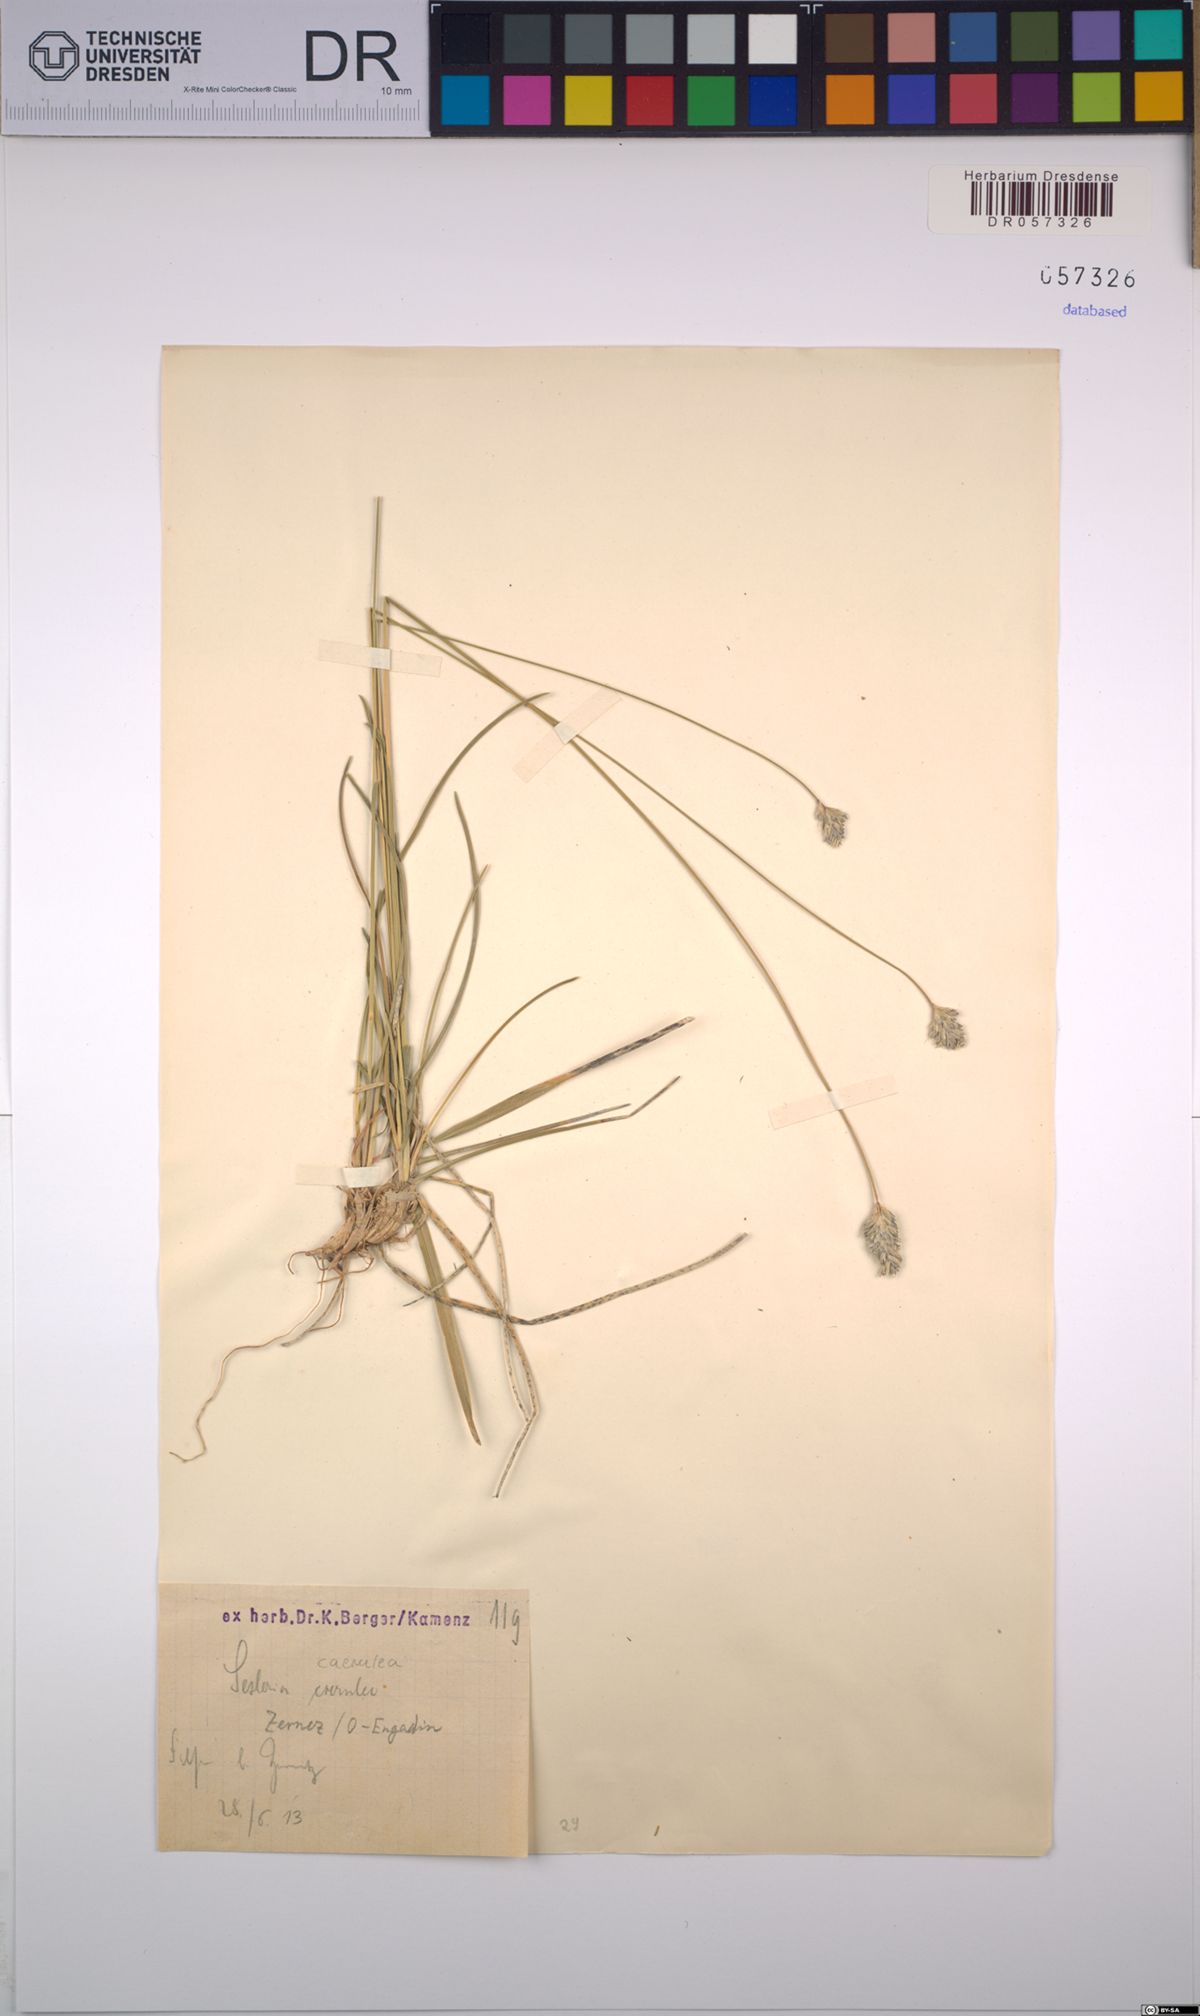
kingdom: Plantae
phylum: Tracheophyta
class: Liliopsida
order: Poales
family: Poaceae
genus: Sesleria
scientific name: Sesleria caerulea
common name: Blue moor-grass
